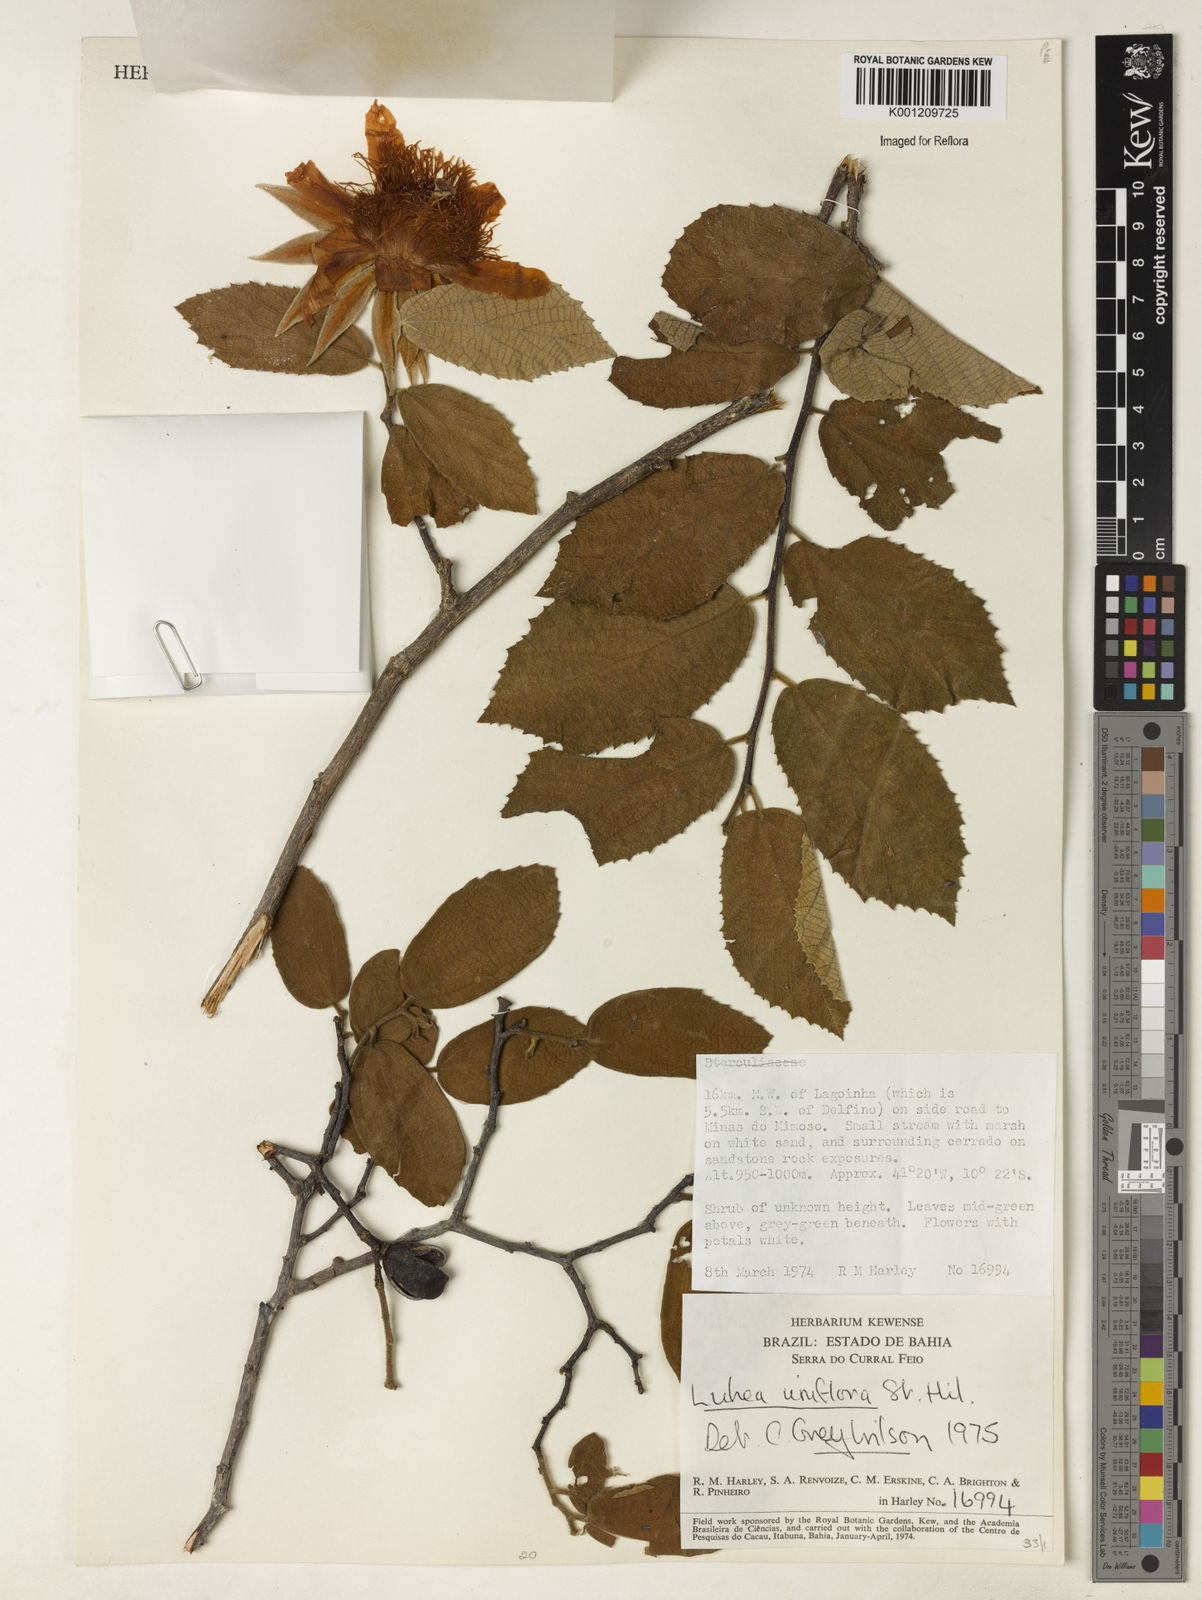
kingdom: Plantae
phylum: Tracheophyta
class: Magnoliopsida
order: Malvales
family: Malvaceae
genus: Luehea
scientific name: Luehea candicans
